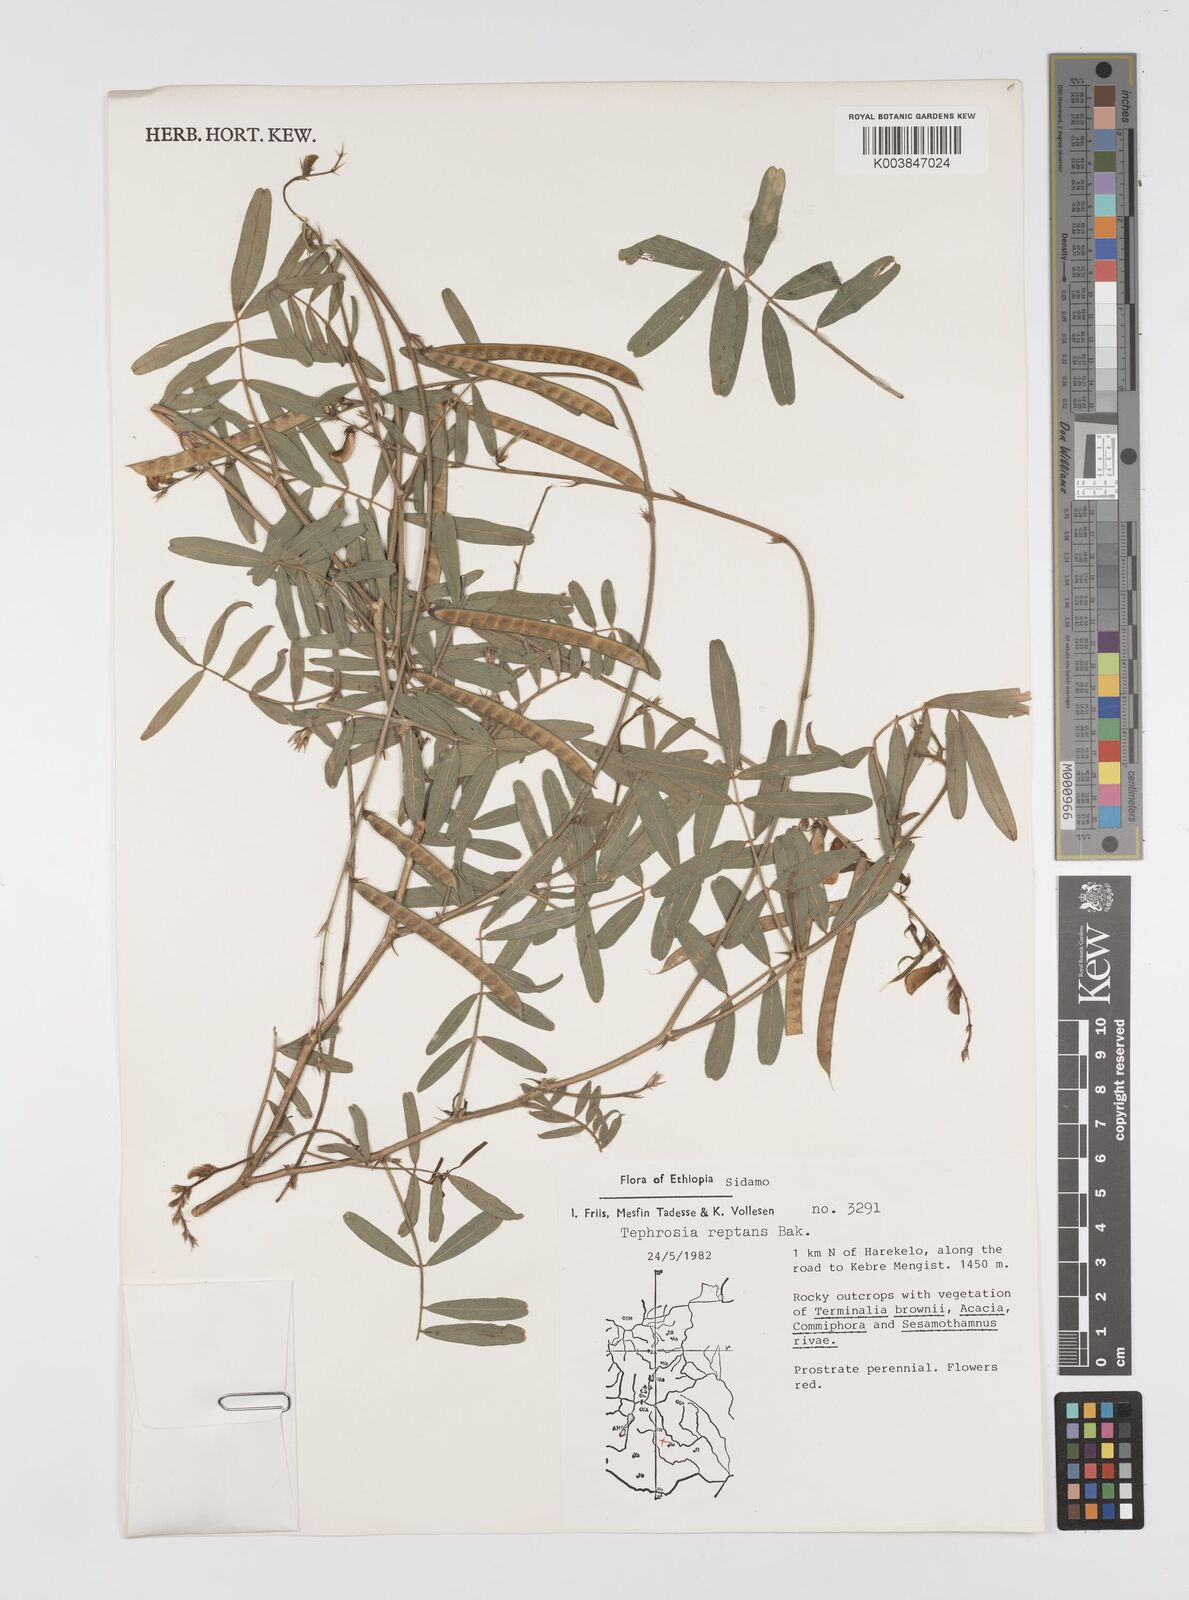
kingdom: Plantae
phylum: Tracheophyta
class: Magnoliopsida
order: Fabales
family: Fabaceae
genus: Tephrosia
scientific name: Tephrosia reptans
